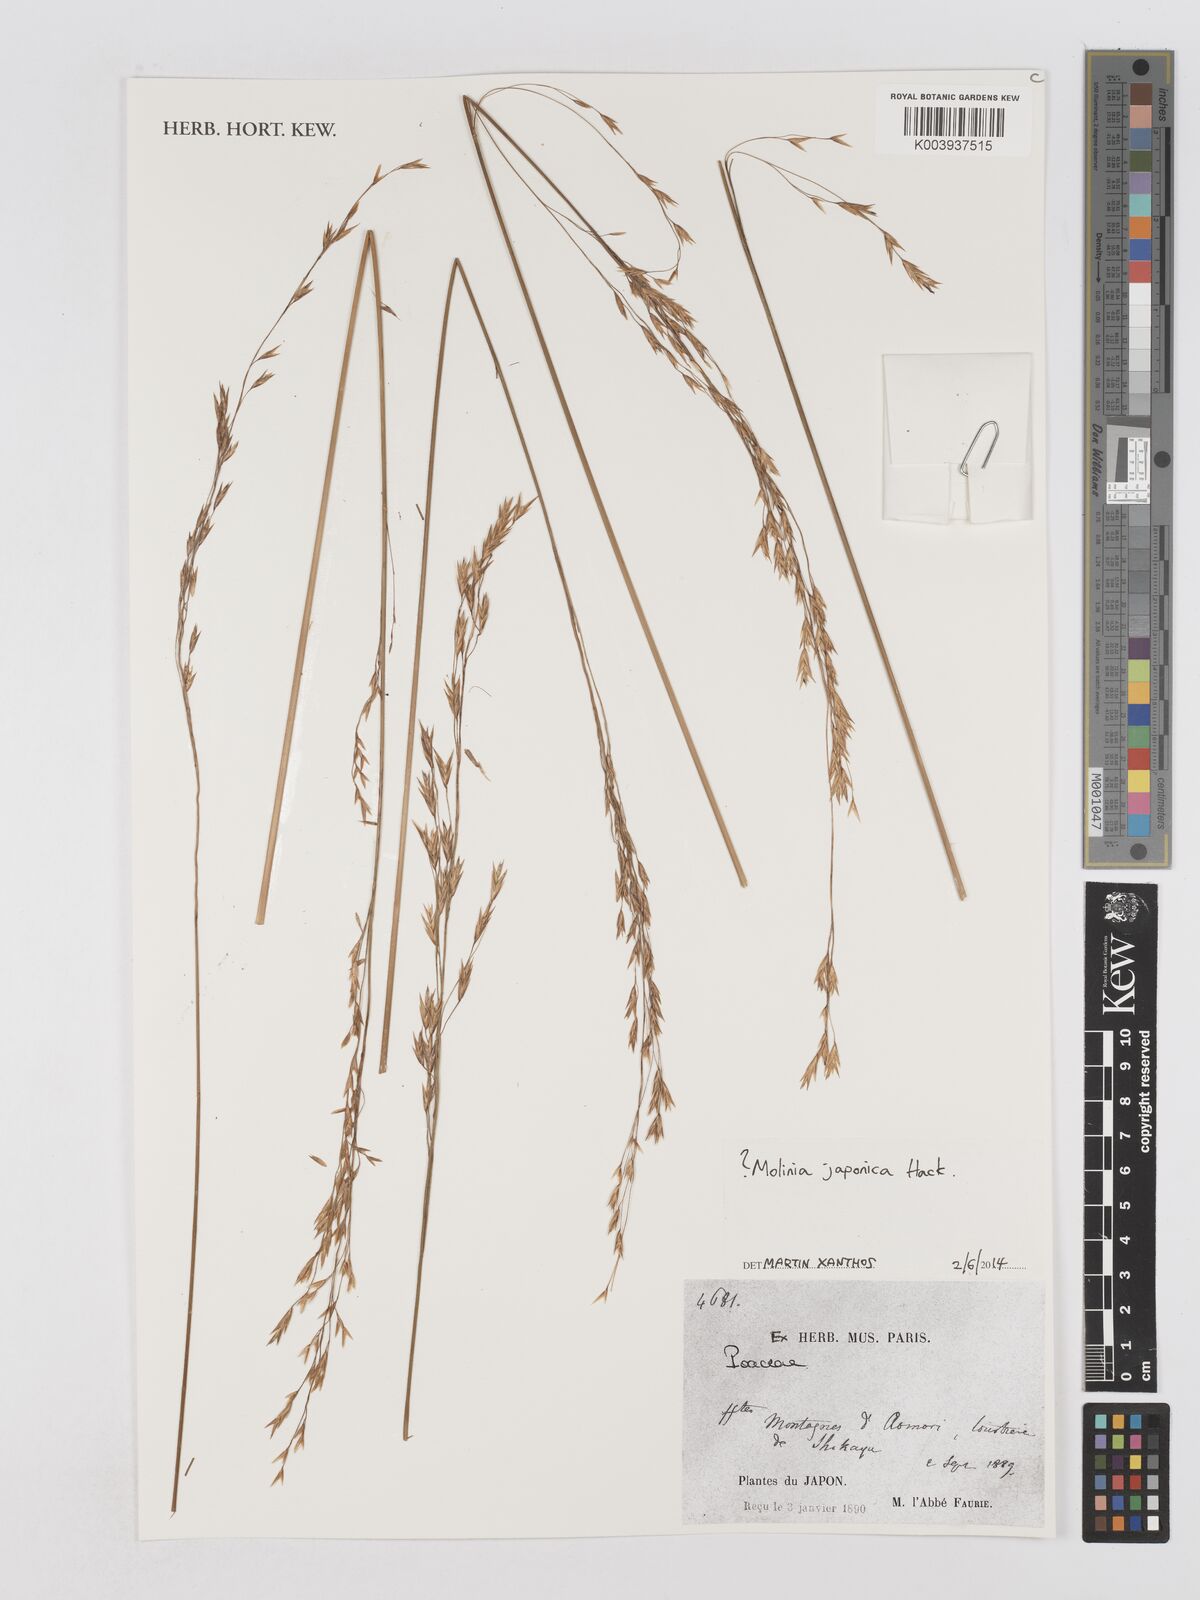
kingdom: Plantae
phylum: Tracheophyta
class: Liliopsida
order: Poales
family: Poaceae
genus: Moliniopsis
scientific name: Moliniopsis japonica
